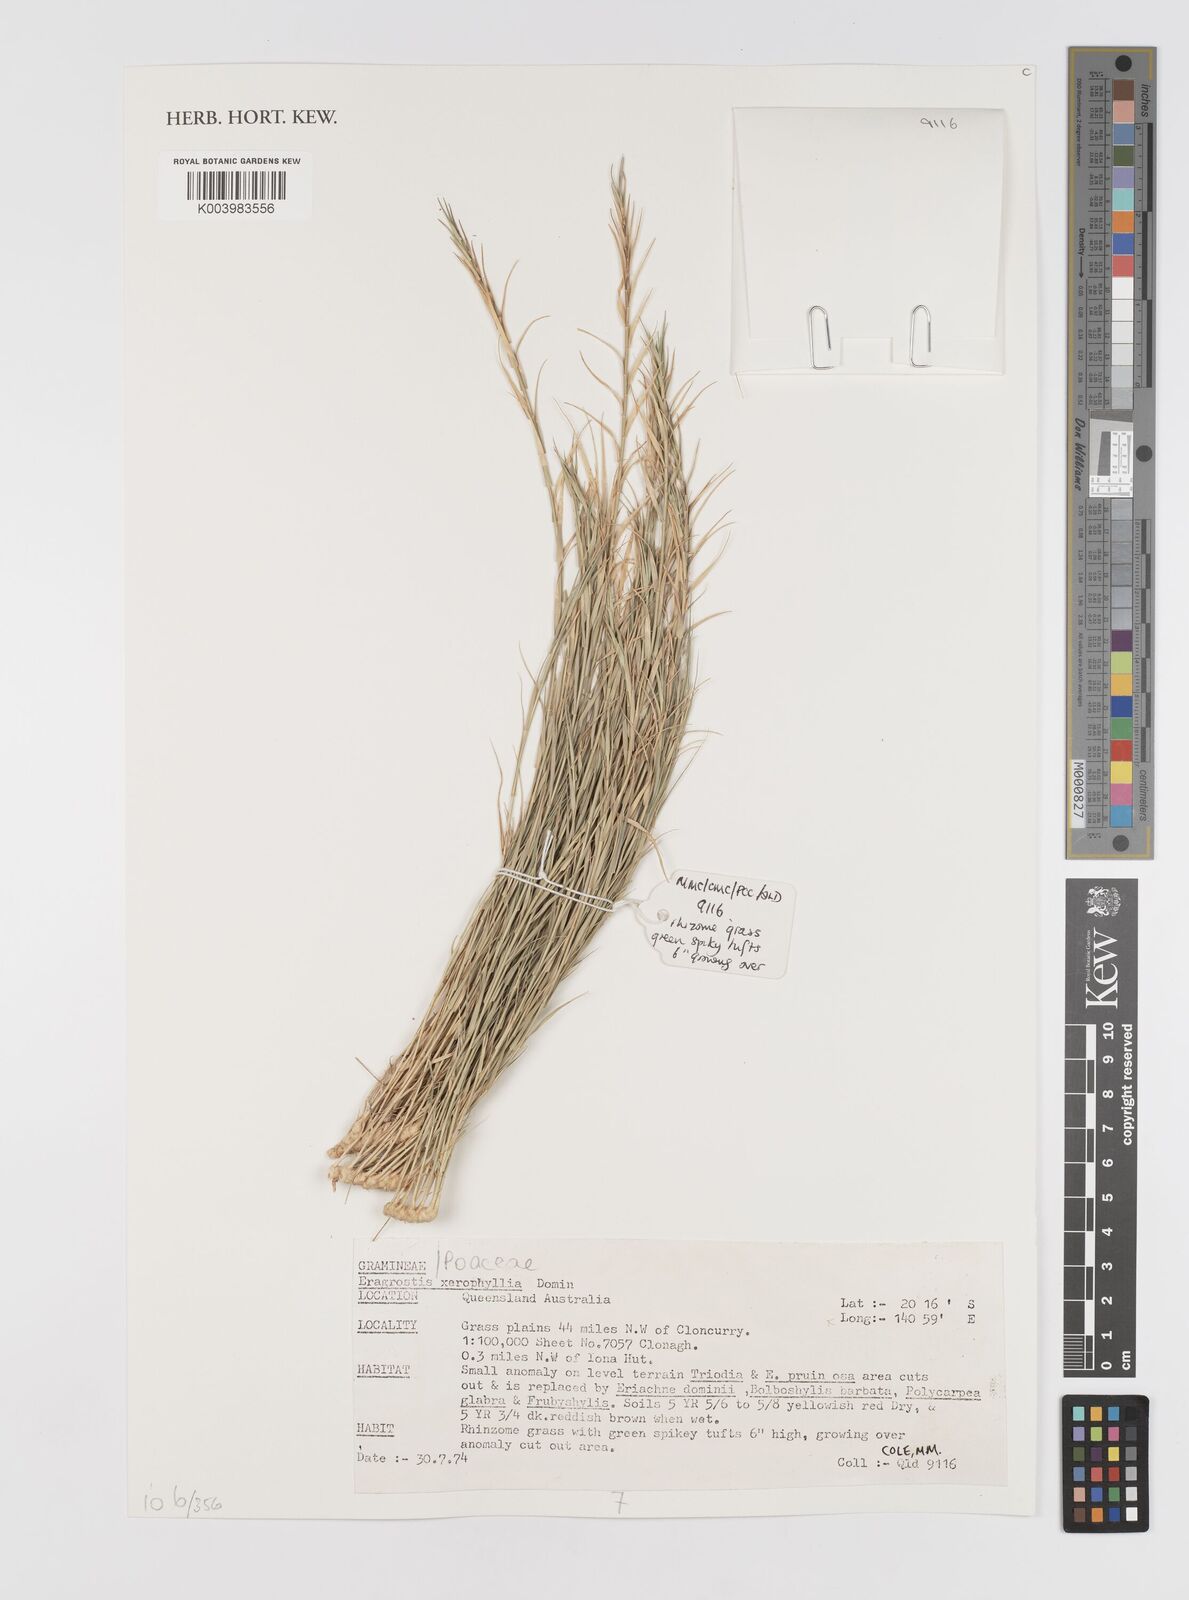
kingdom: Plantae
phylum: Tracheophyta
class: Liliopsida
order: Poales
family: Poaceae
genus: Eragrostis
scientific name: Eragrostis xerophila
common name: Wire wandarrie grass
